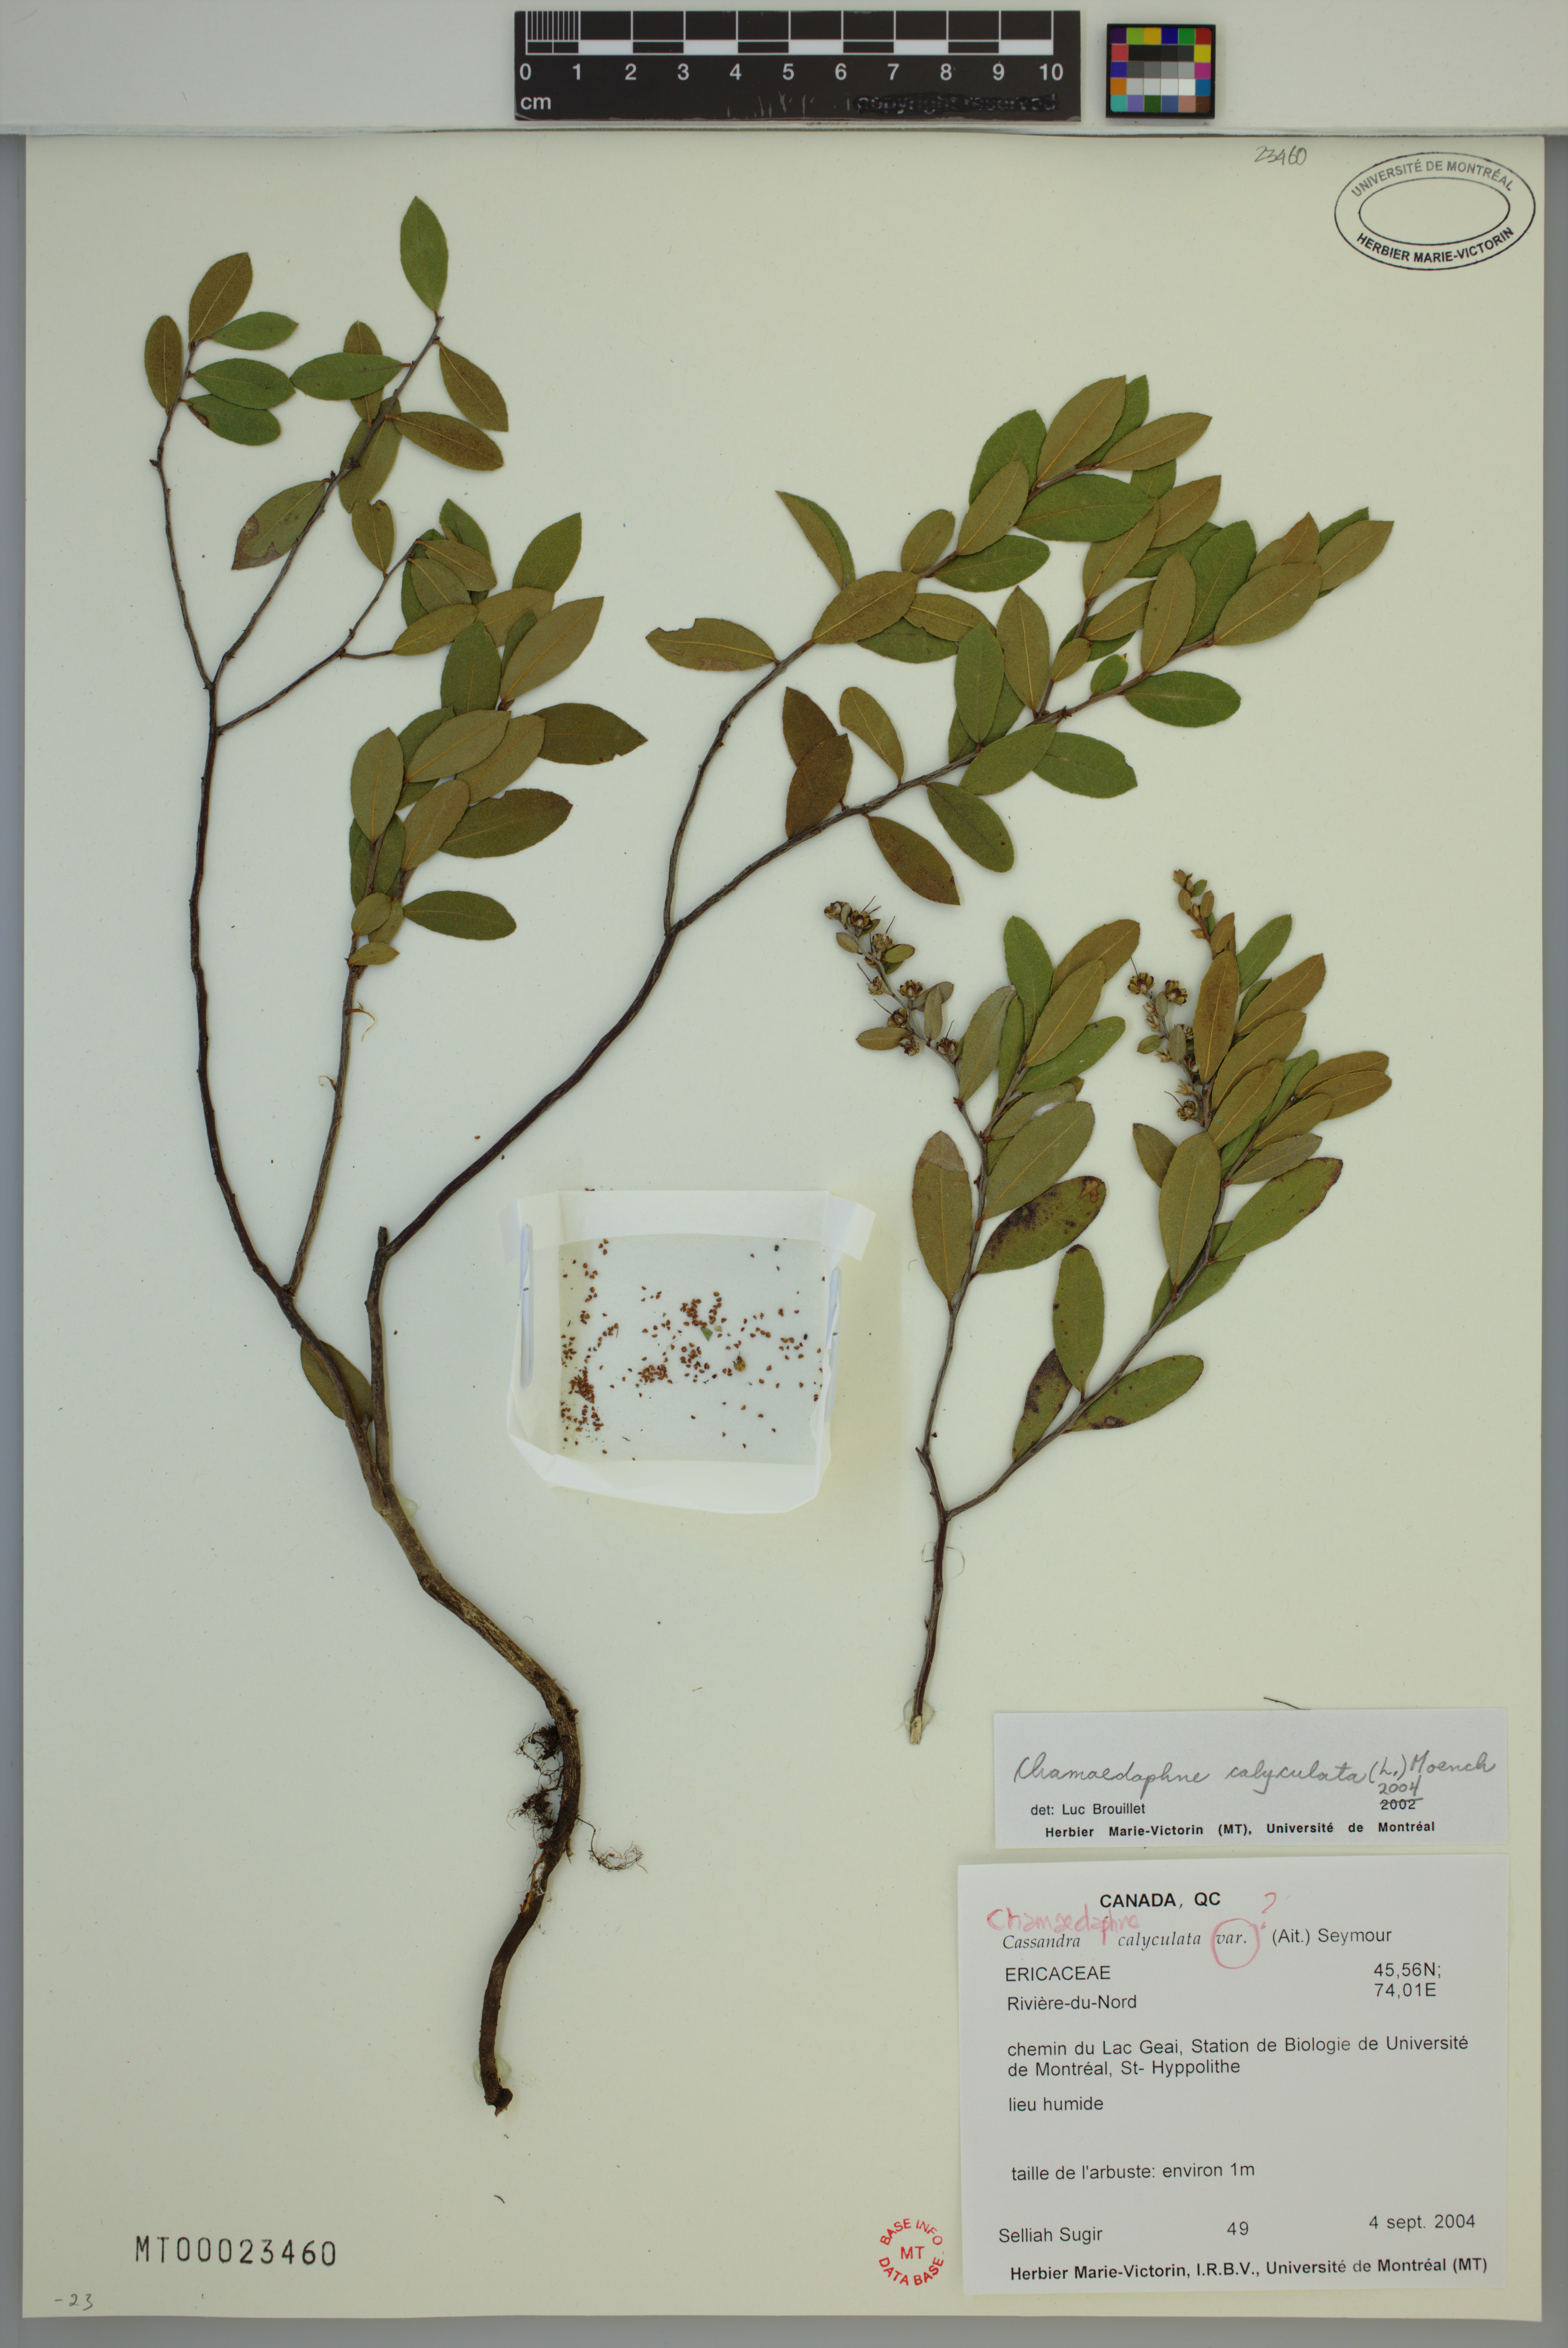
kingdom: Plantae
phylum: Tracheophyta
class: Magnoliopsida
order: Ericales
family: Ericaceae
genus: Chamaedaphne
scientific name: Chamaedaphne calyculata
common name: Leatherleaf
